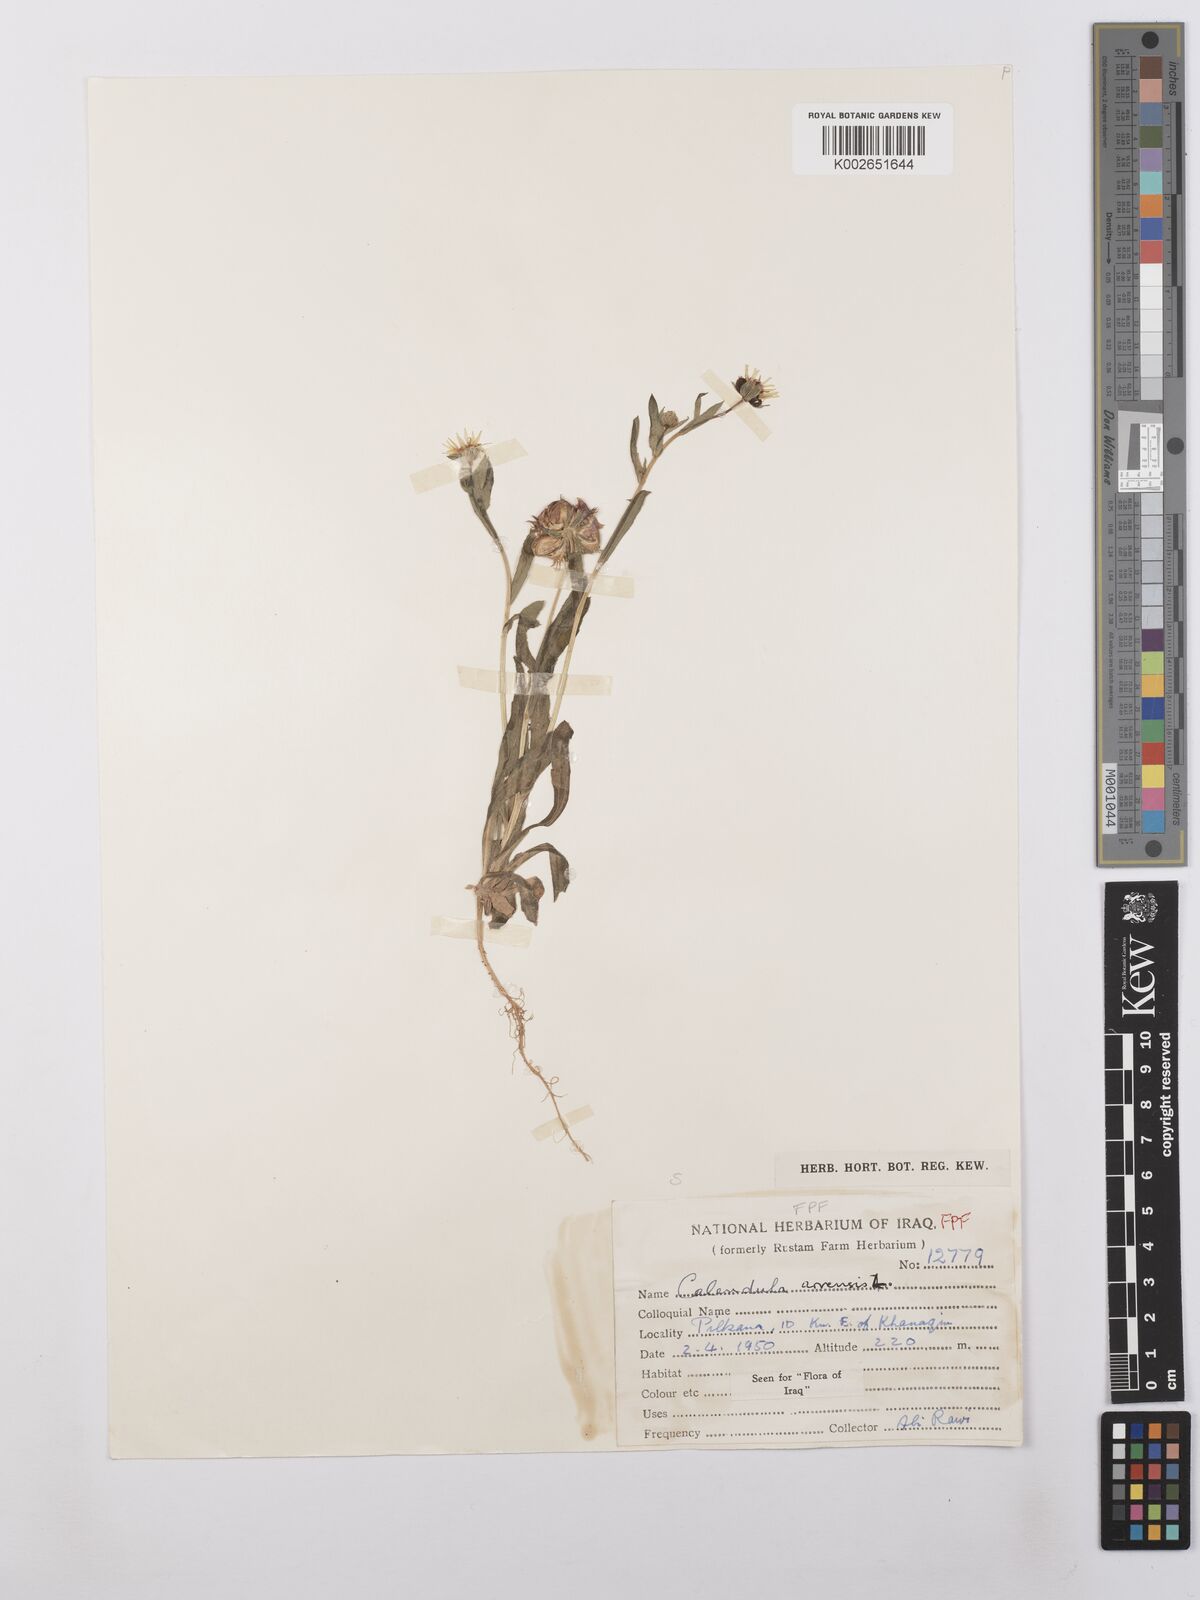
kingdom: Plantae
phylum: Tracheophyta
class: Magnoliopsida
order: Asterales
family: Asteraceae
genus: Calendula
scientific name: Calendula arvensis
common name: Field marigold
